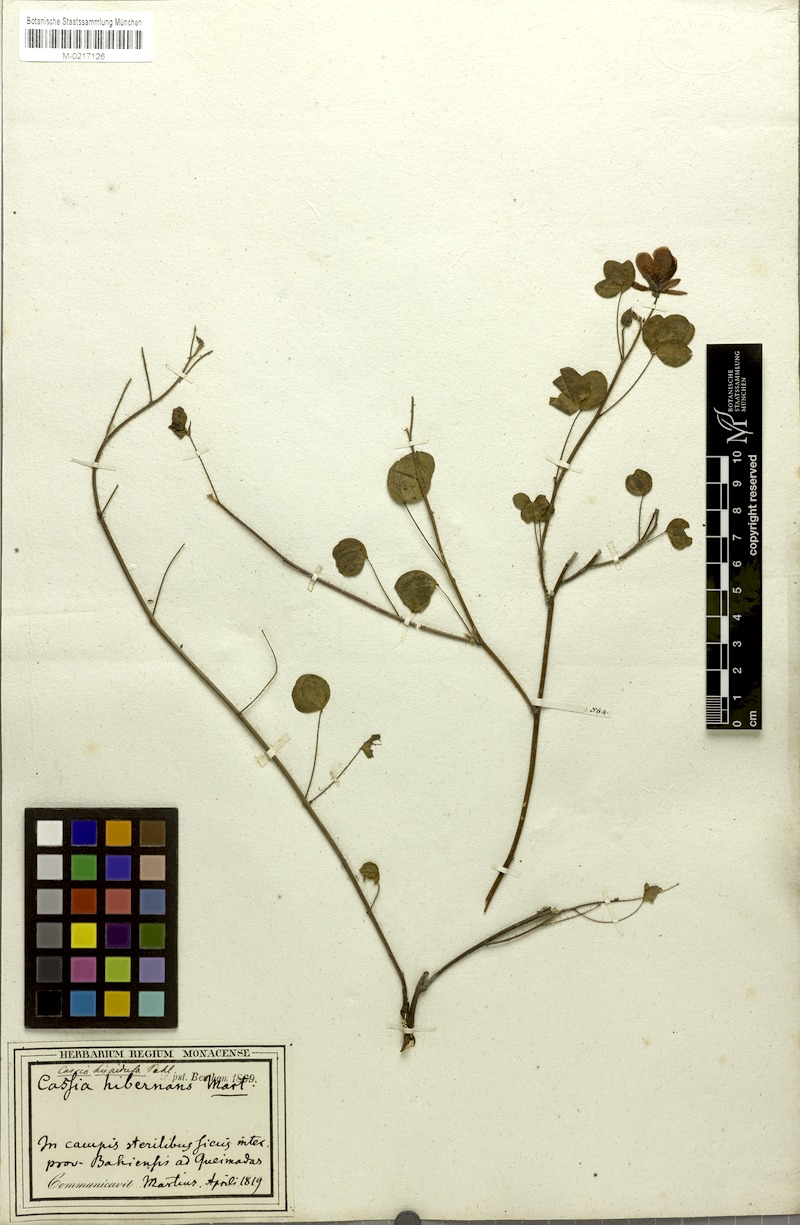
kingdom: Plantae
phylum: Tracheophyta
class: Magnoliopsida
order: Fabales
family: Fabaceae
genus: Chamaecrista
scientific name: Chamaecrista hispidula
